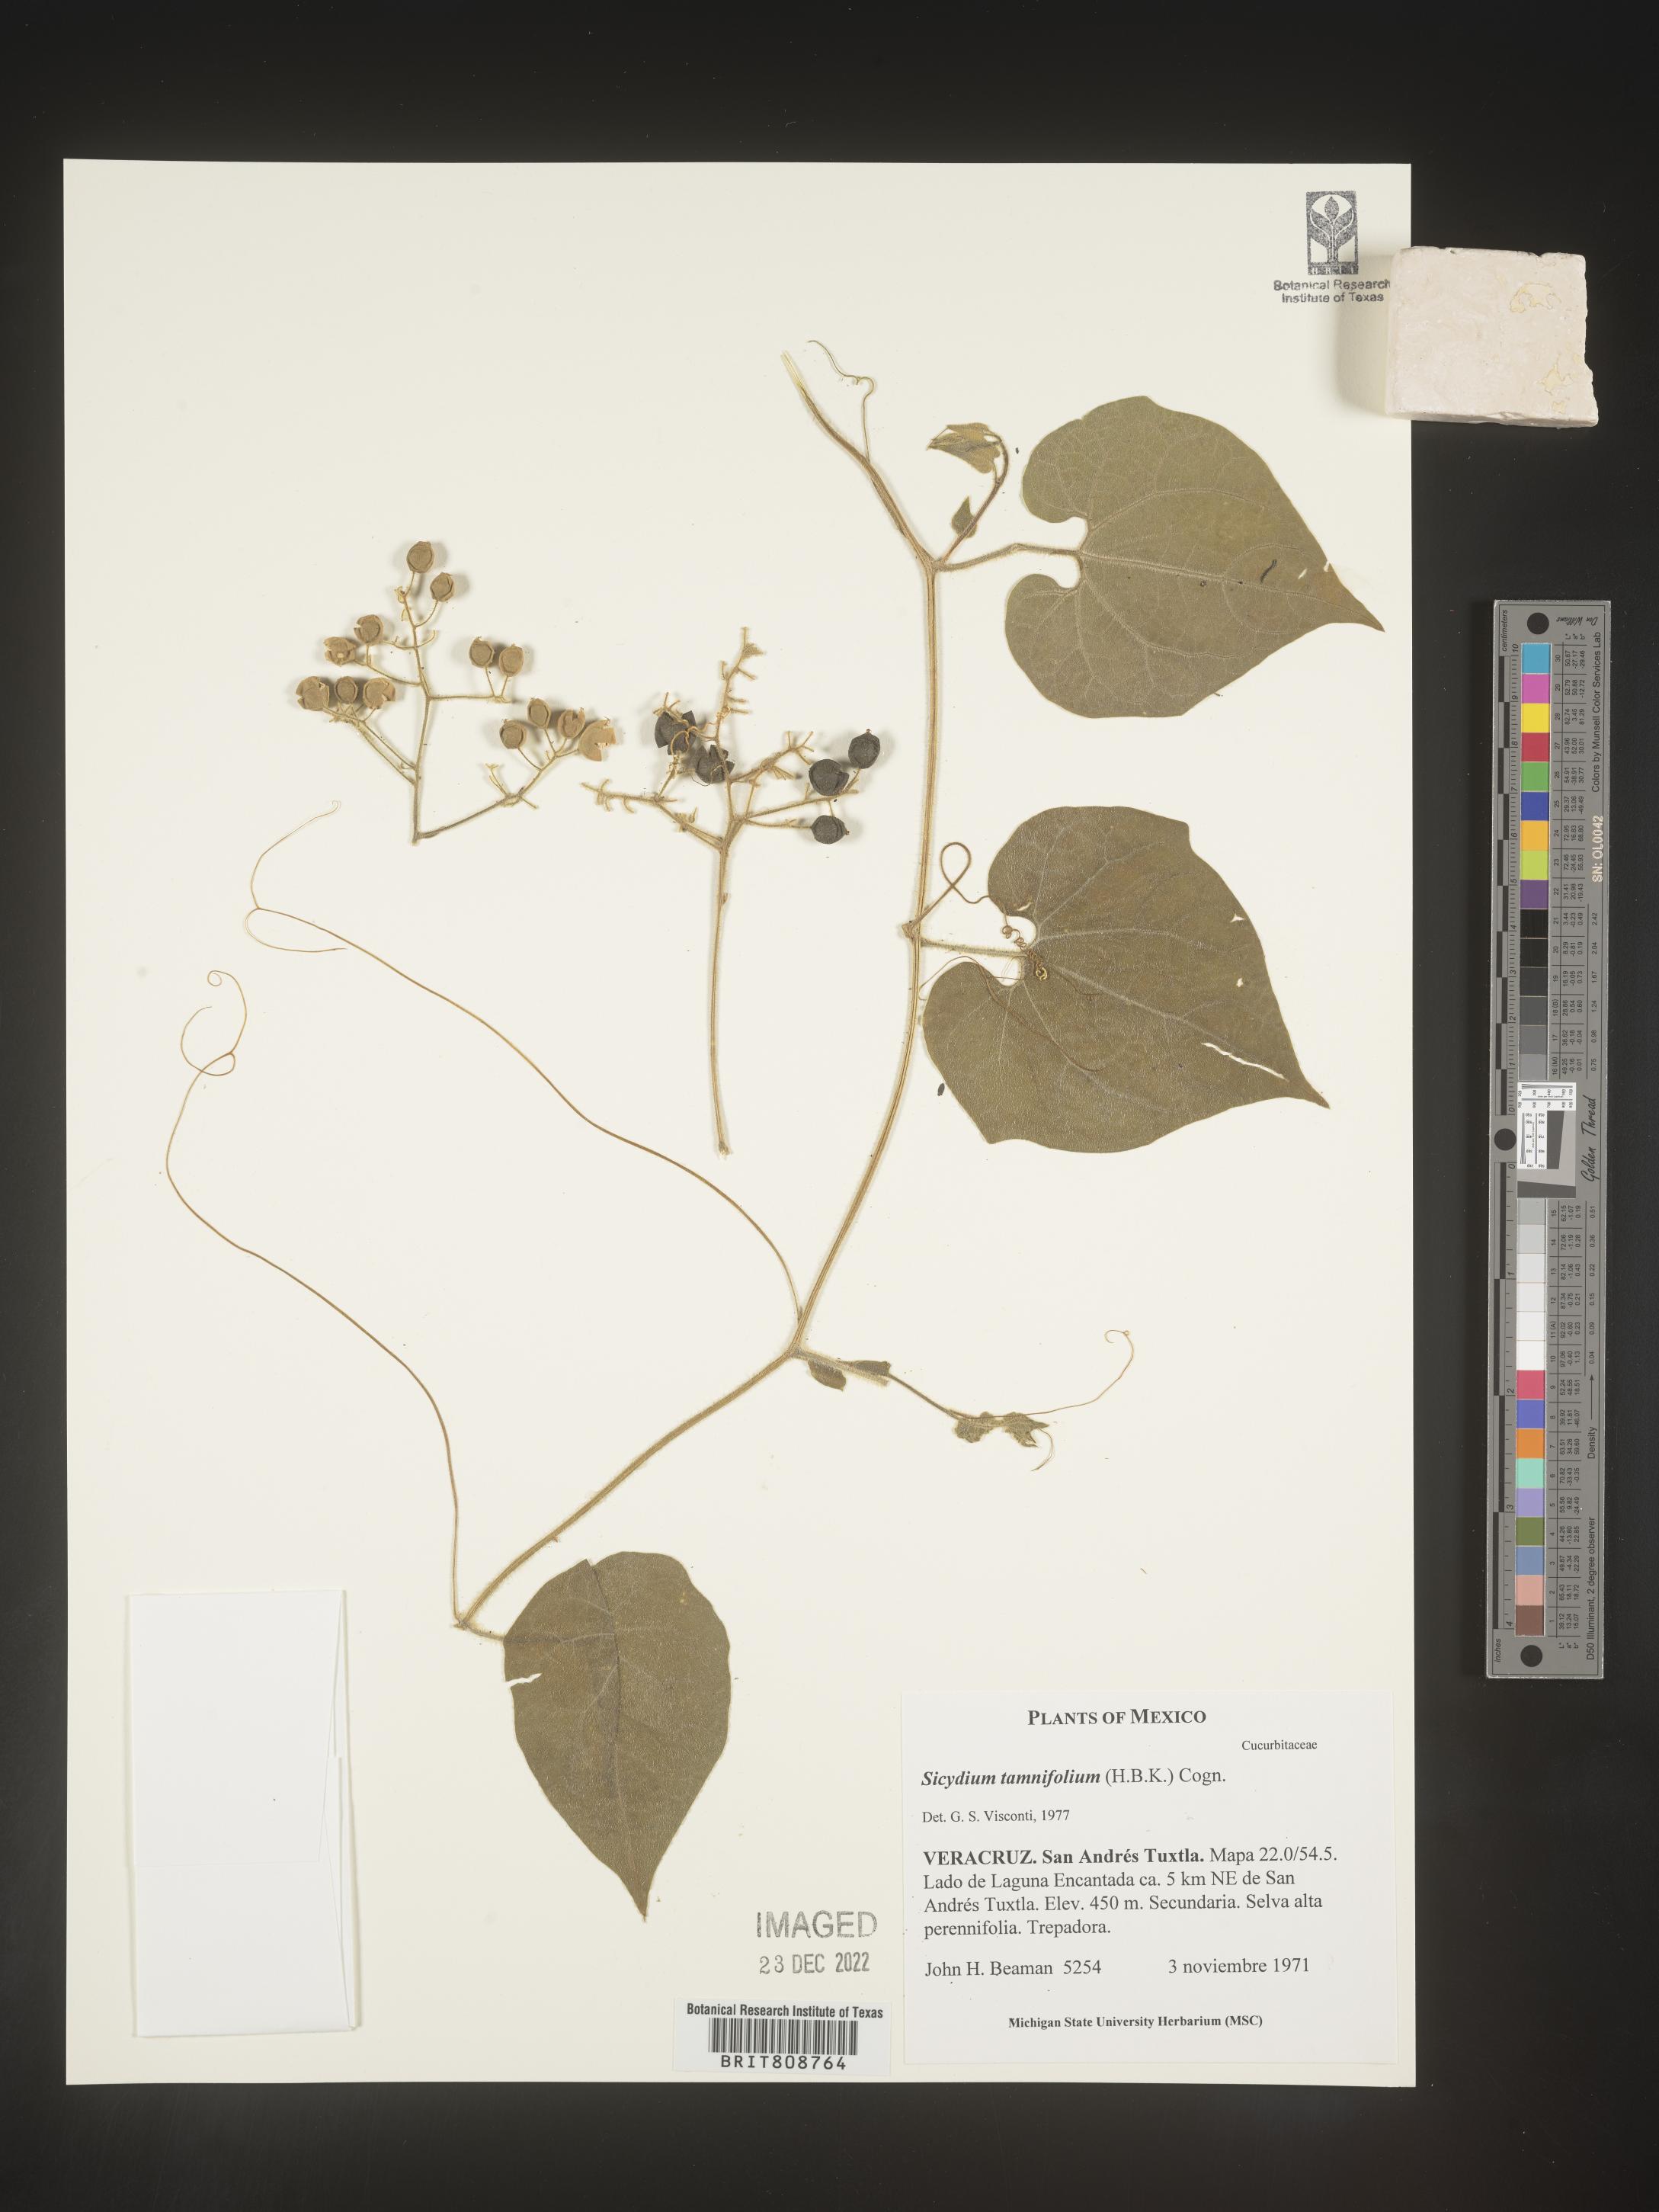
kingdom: Plantae
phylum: Tracheophyta
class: Magnoliopsida
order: Cucurbitales
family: Cucurbitaceae
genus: Sicydium
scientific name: Sicydium
